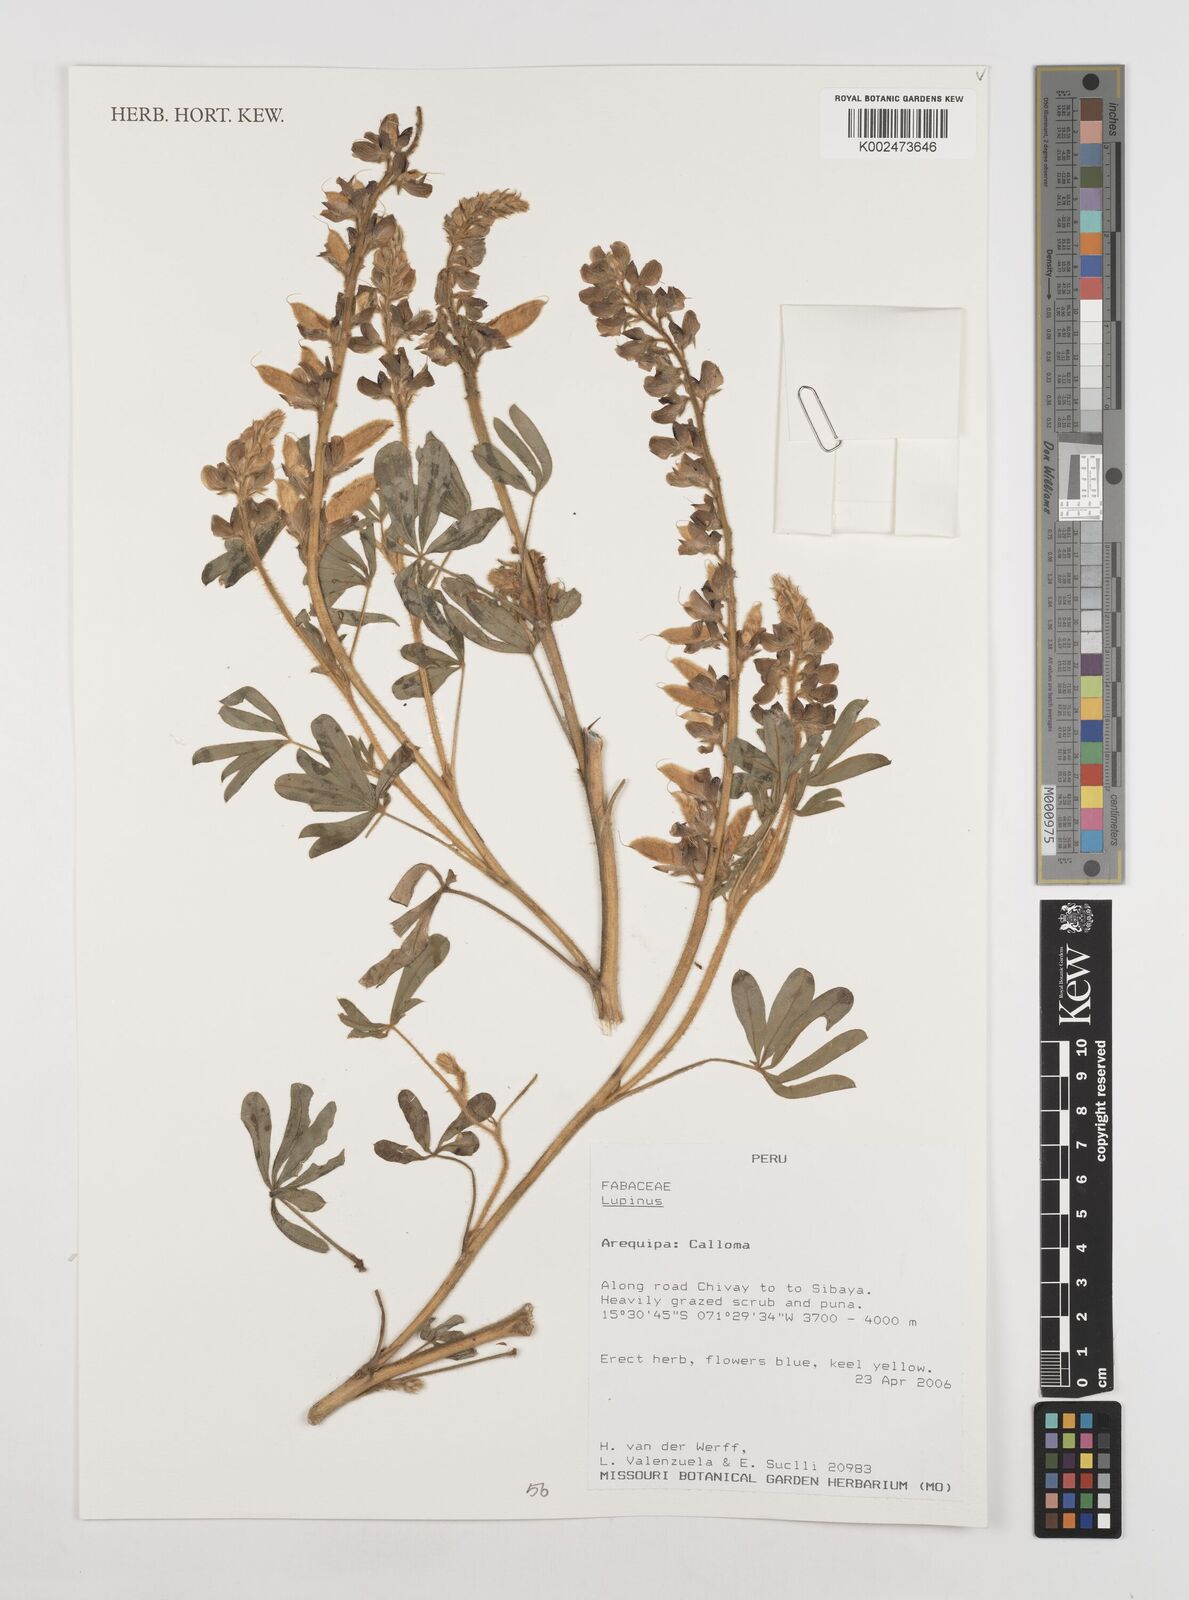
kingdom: Plantae
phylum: Tracheophyta
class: Magnoliopsida
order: Fabales
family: Fabaceae
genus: Lupinus
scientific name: Lupinus
